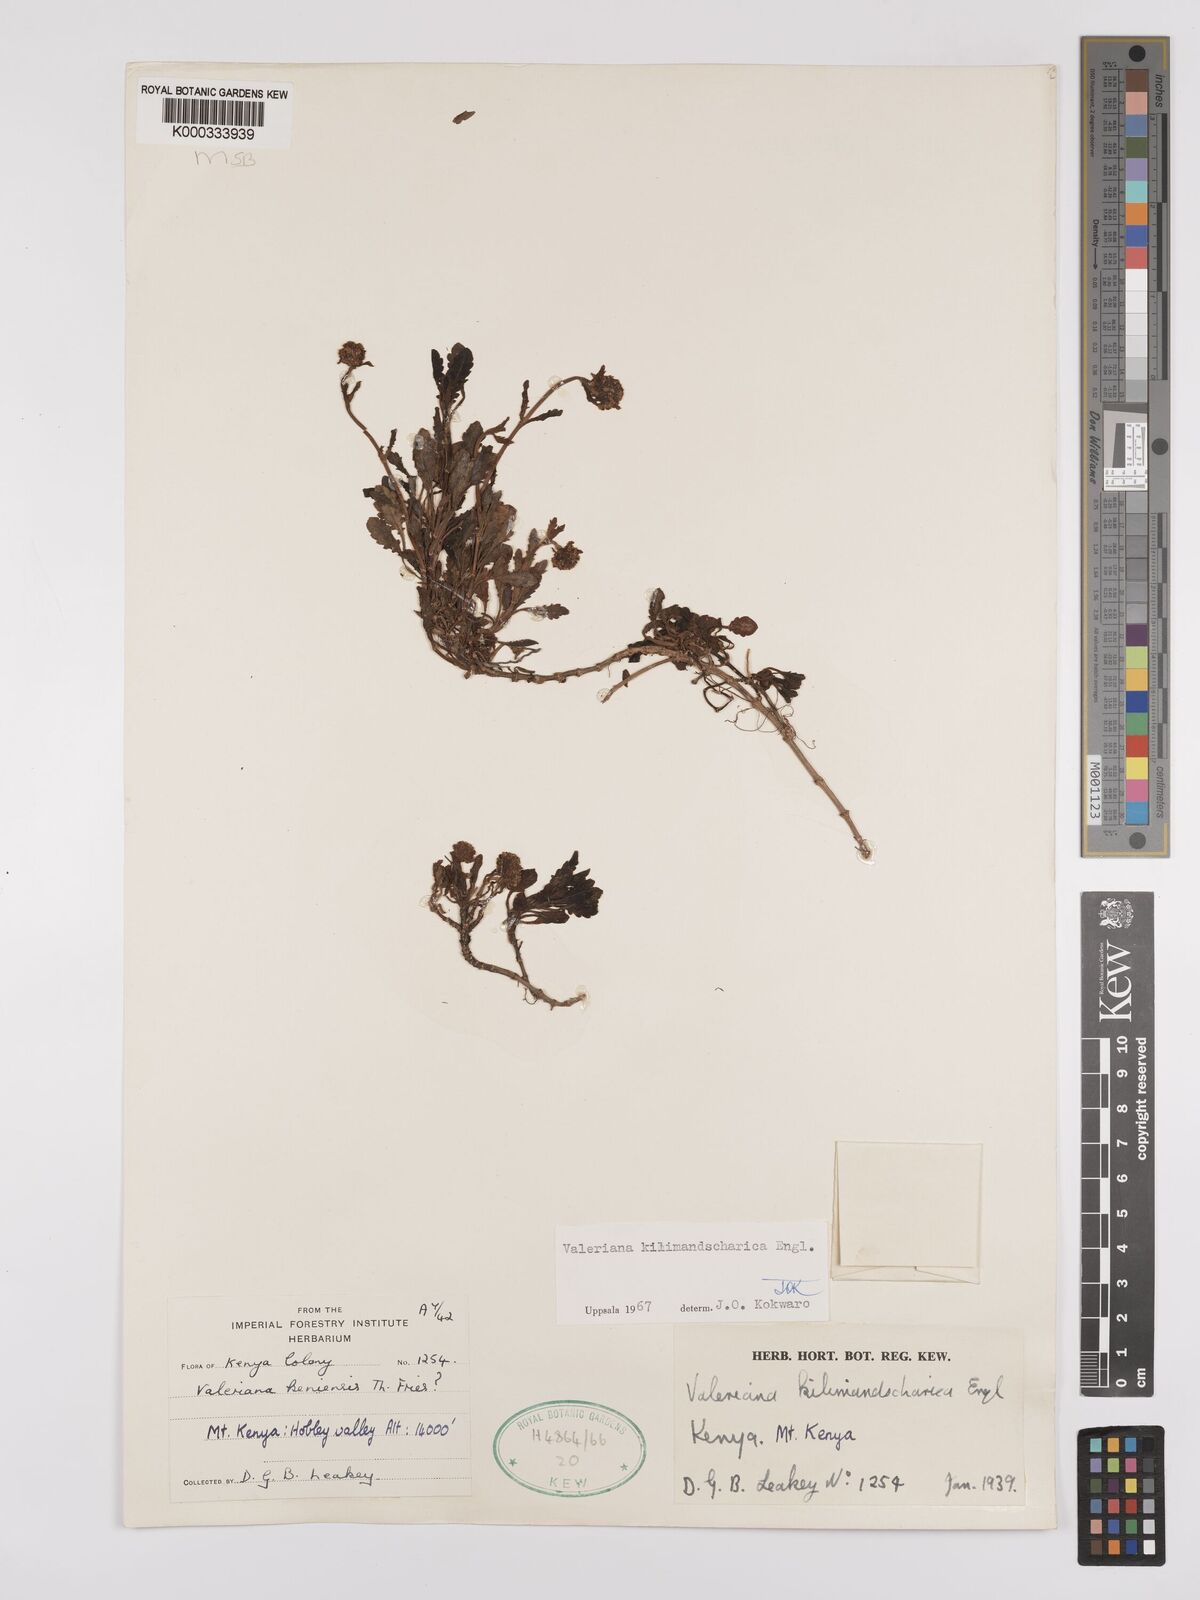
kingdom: Plantae
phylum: Tracheophyta
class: Magnoliopsida
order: Dipsacales
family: Caprifoliaceae
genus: Valeriana
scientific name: Valeriana kilimandscharica
